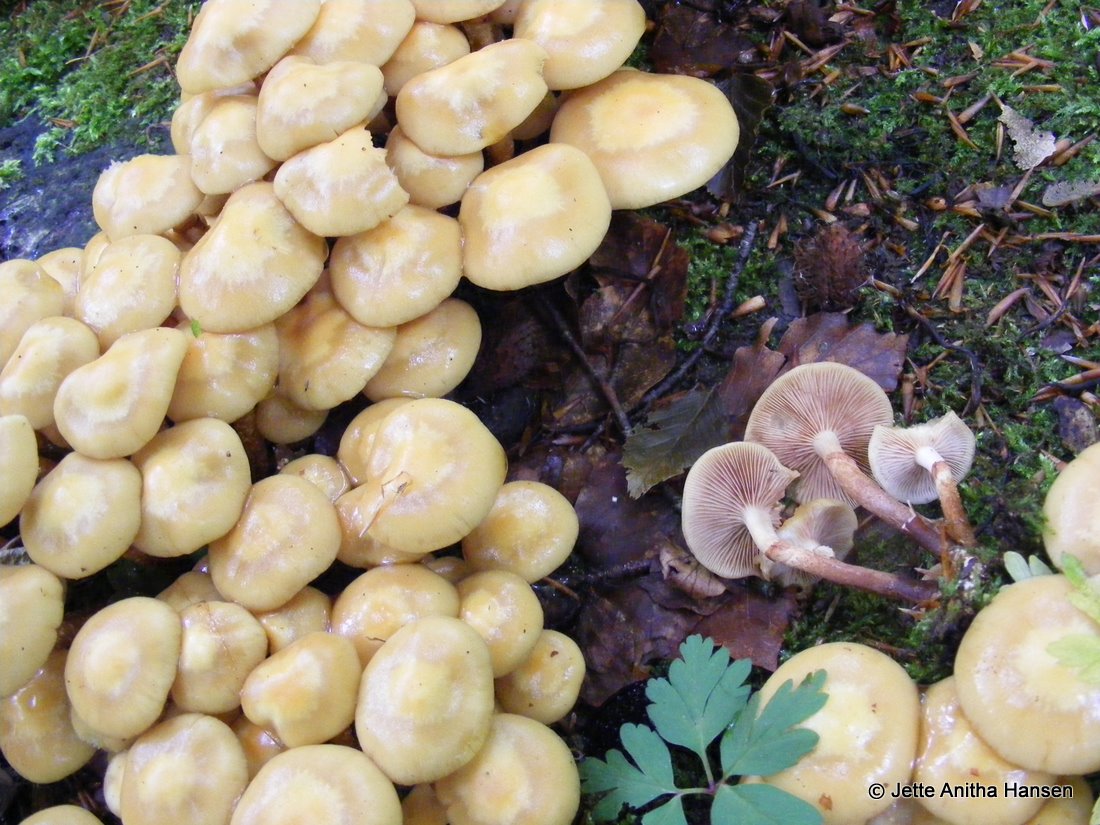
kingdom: Fungi
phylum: Basidiomycota
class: Agaricomycetes
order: Agaricales
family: Strophariaceae
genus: Kuehneromyces
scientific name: Kuehneromyces mutabilis
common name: foranderlig skælhat
